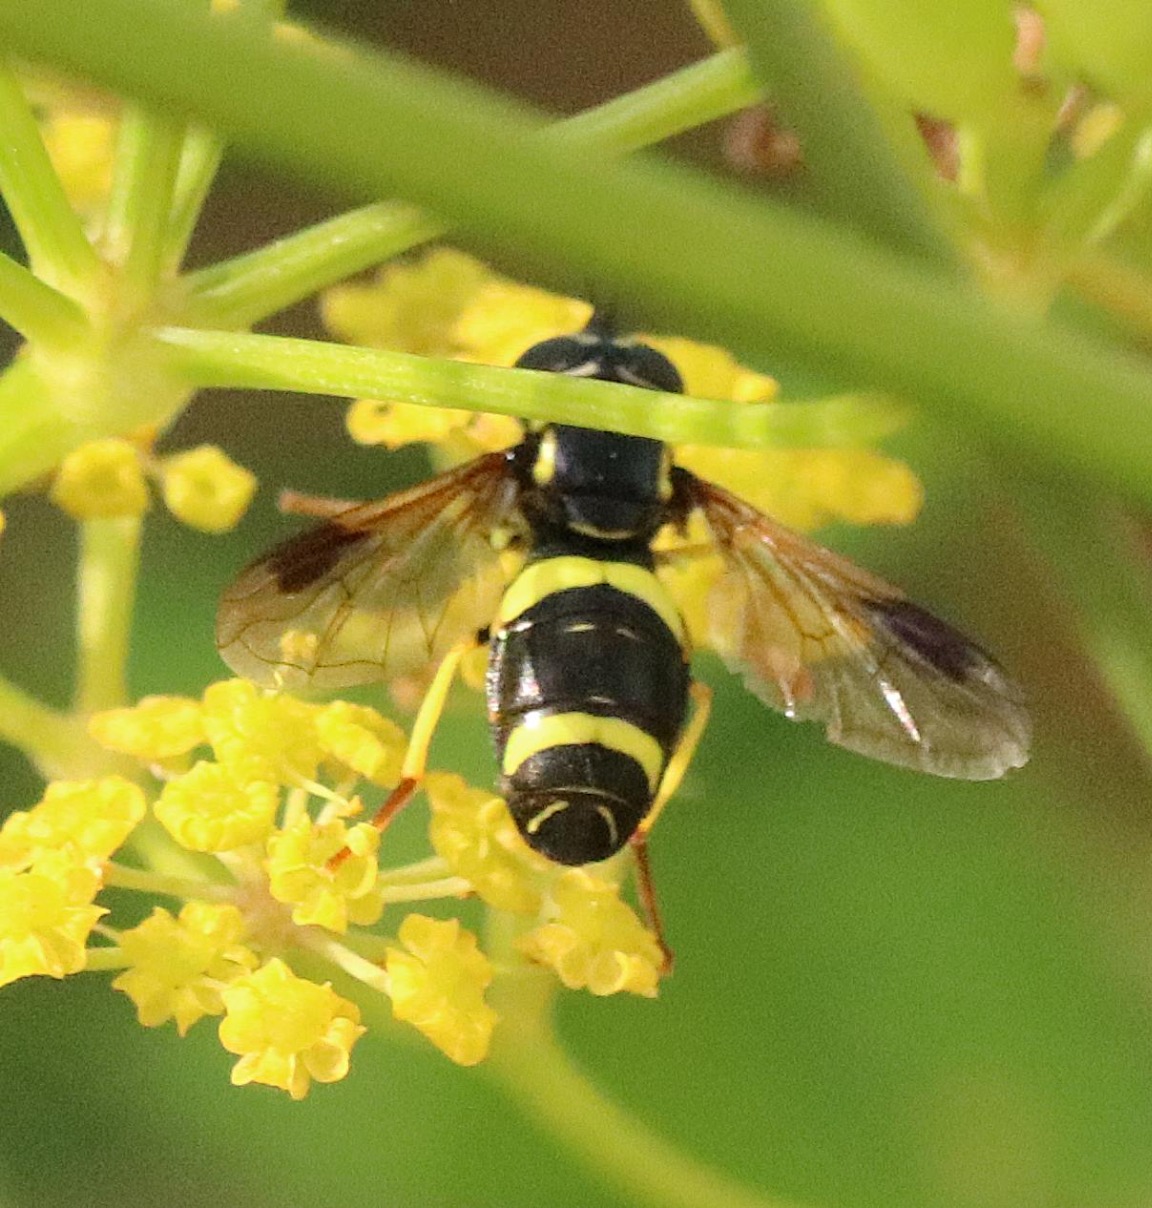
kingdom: Animalia
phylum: Arthropoda
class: Insecta
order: Diptera
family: Syrphidae
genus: Chrysotoxum
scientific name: Chrysotoxum bicincta
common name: Tobåndet hvepsesvirreflue
